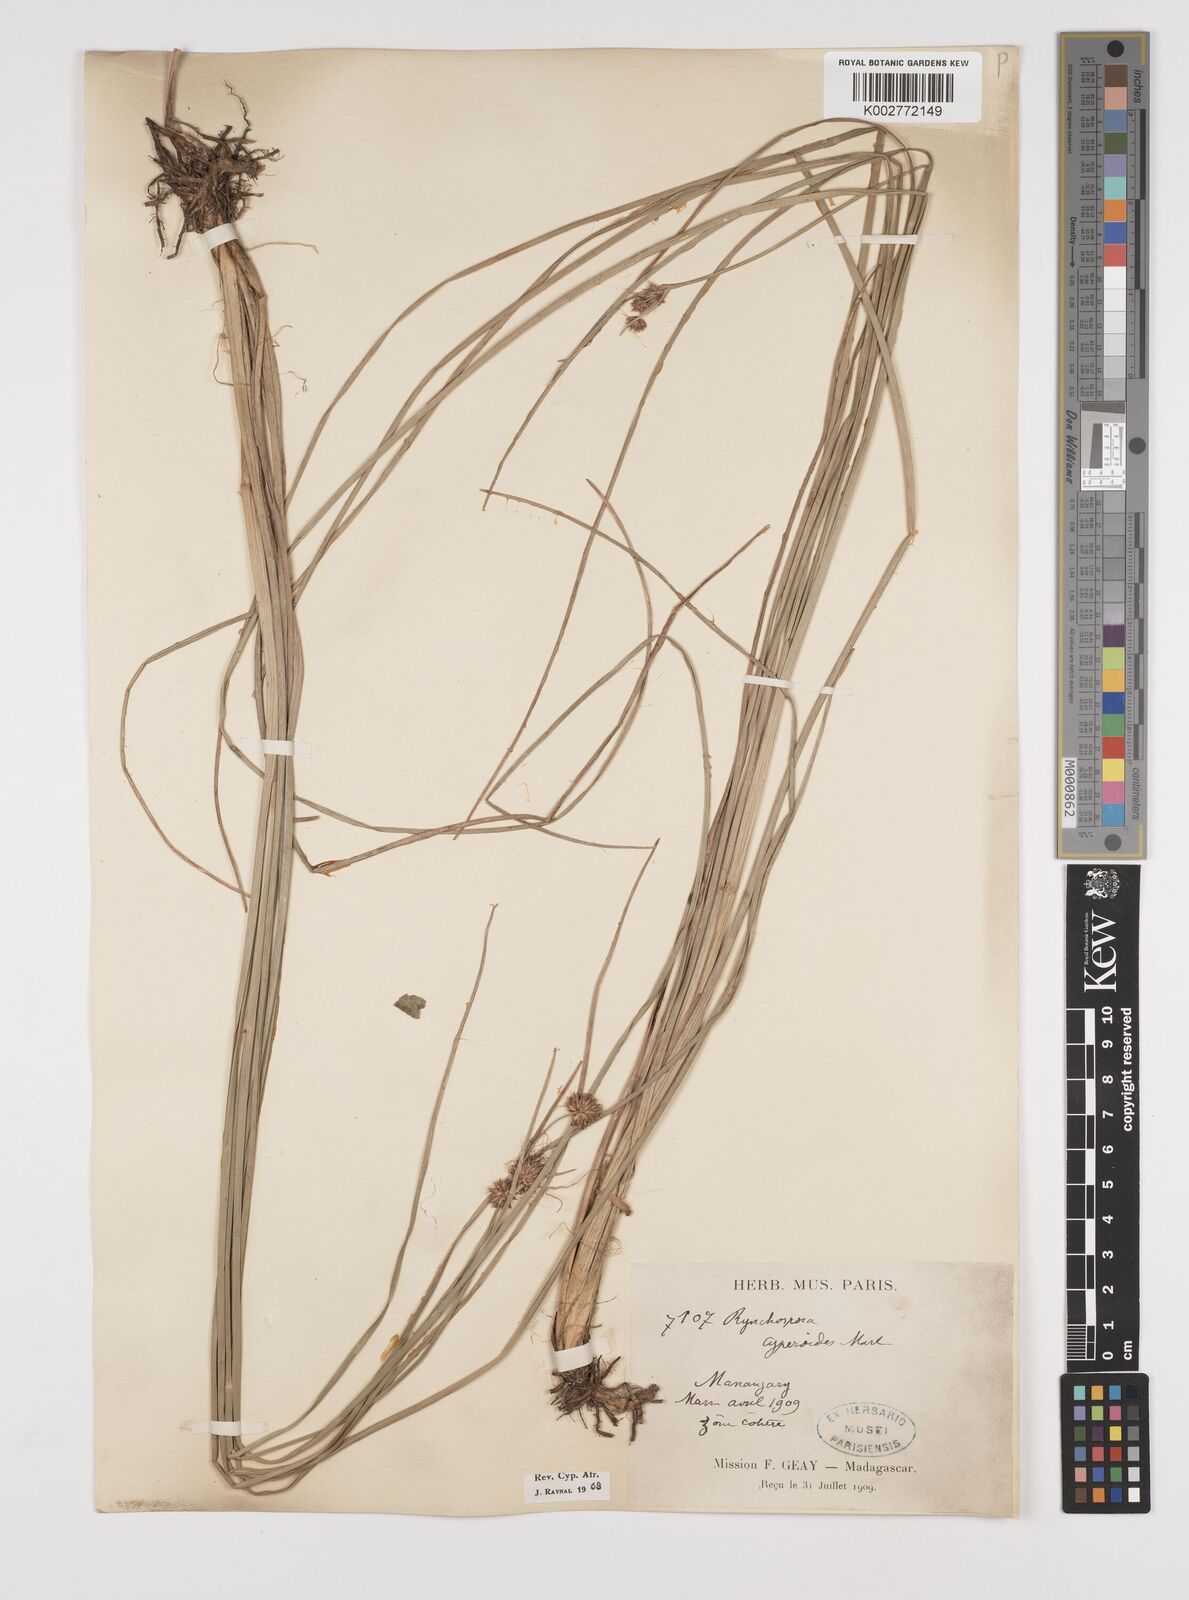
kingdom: Plantae
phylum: Tracheophyta
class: Liliopsida
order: Poales
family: Cyperaceae
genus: Rhynchospora
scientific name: Rhynchospora holoschoenoides
